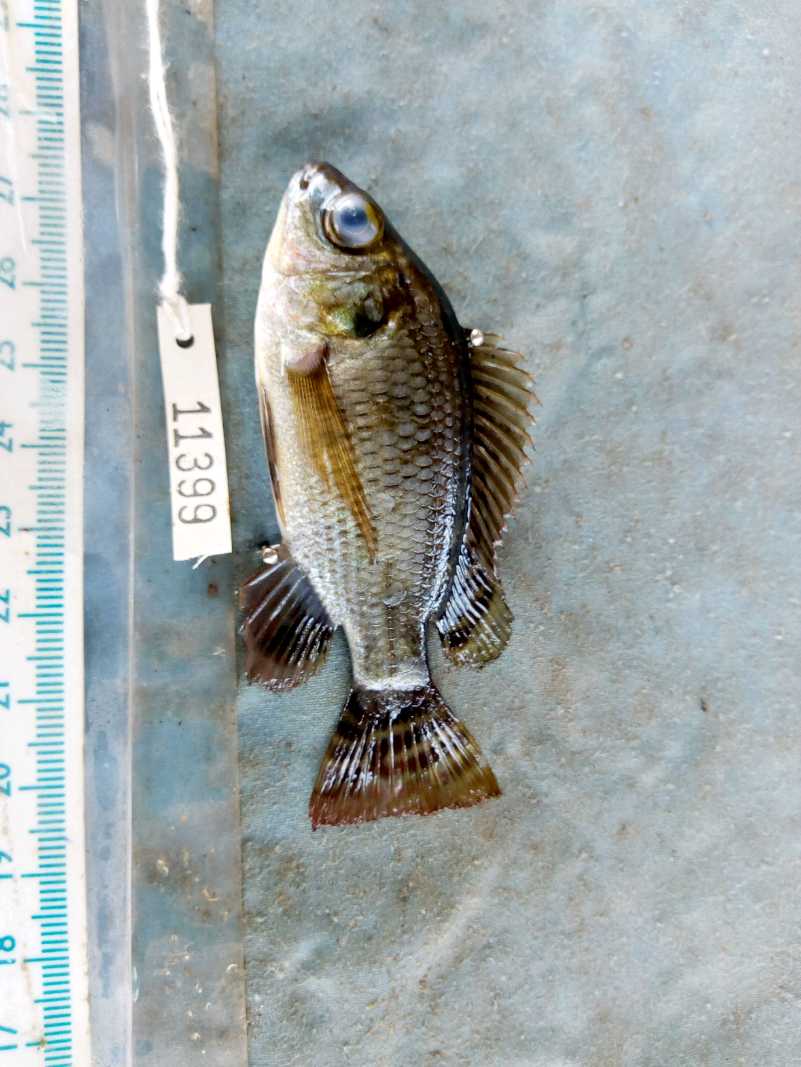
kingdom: Animalia
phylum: Chordata
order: Perciformes
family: Cichlidae
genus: Oreochromis
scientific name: Oreochromis niloticus
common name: Nile tilapia
